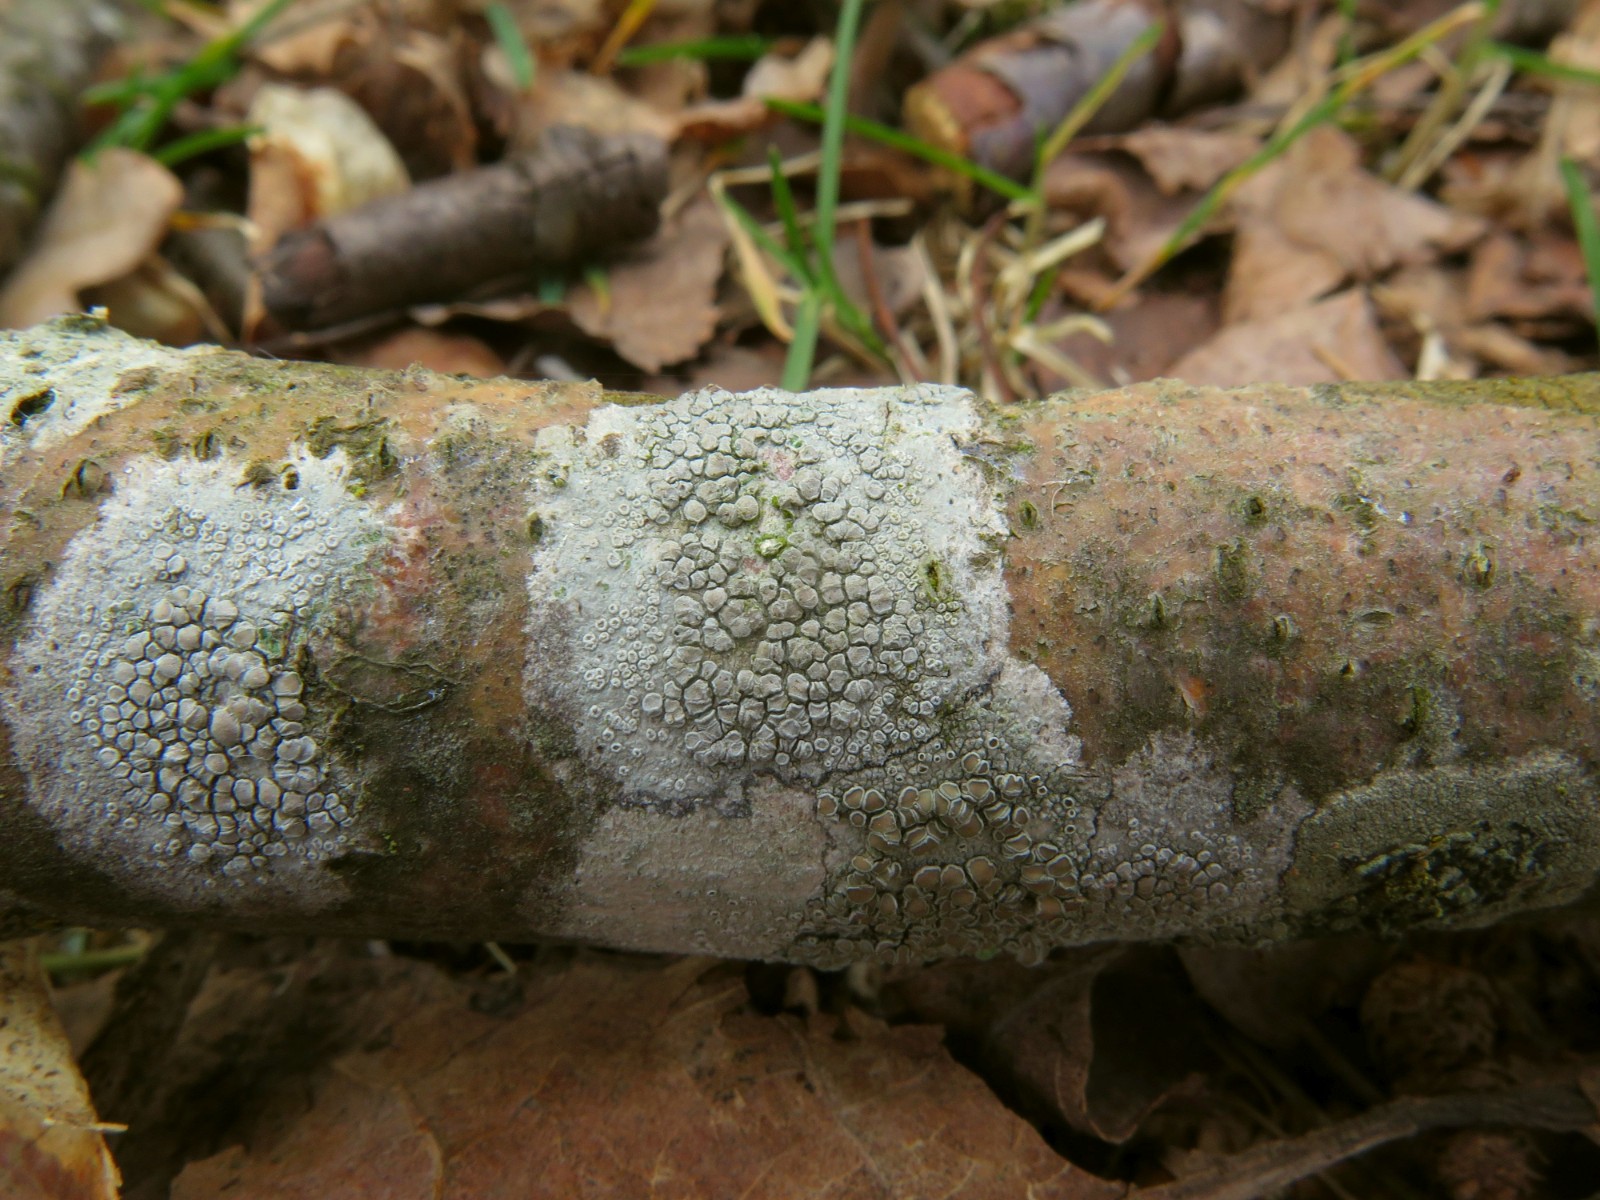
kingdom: Fungi
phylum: Ascomycota
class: Lecanoromycetes
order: Lecanorales
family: Lecanoraceae
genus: Glaucomaria
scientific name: Glaucomaria carpinea
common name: hviddugget kantskivelav
